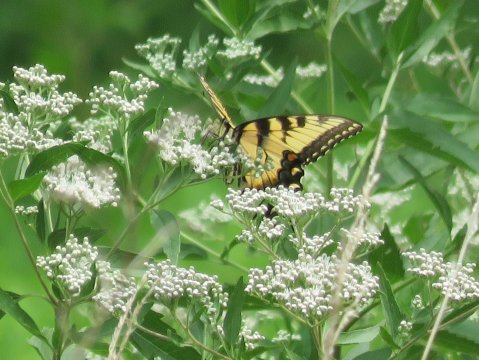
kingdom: Animalia
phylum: Arthropoda
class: Insecta
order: Lepidoptera
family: Papilionidae
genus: Pterourus
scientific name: Pterourus glaucus
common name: Eastern Tiger Swallowtail
